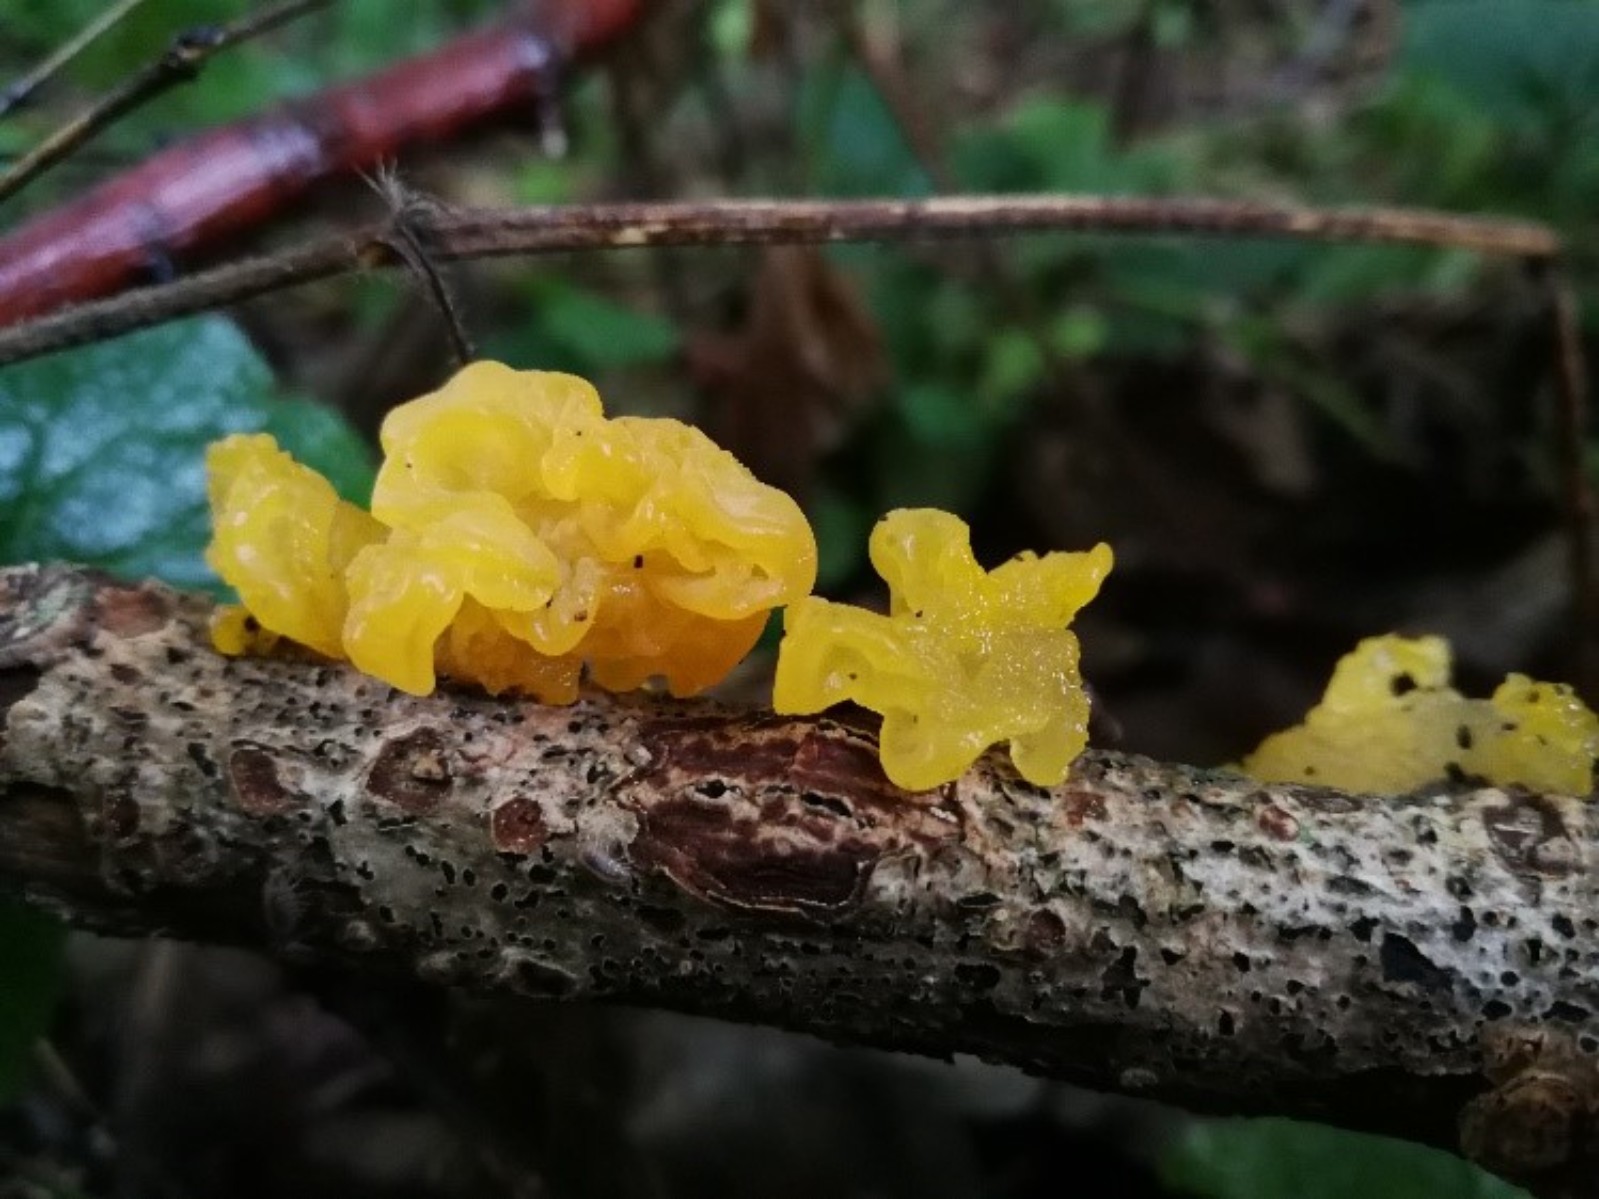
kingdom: Fungi
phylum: Basidiomycota
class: Tremellomycetes
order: Tremellales
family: Tremellaceae
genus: Tremella
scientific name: Tremella mesenterica
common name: gul bævresvamp
